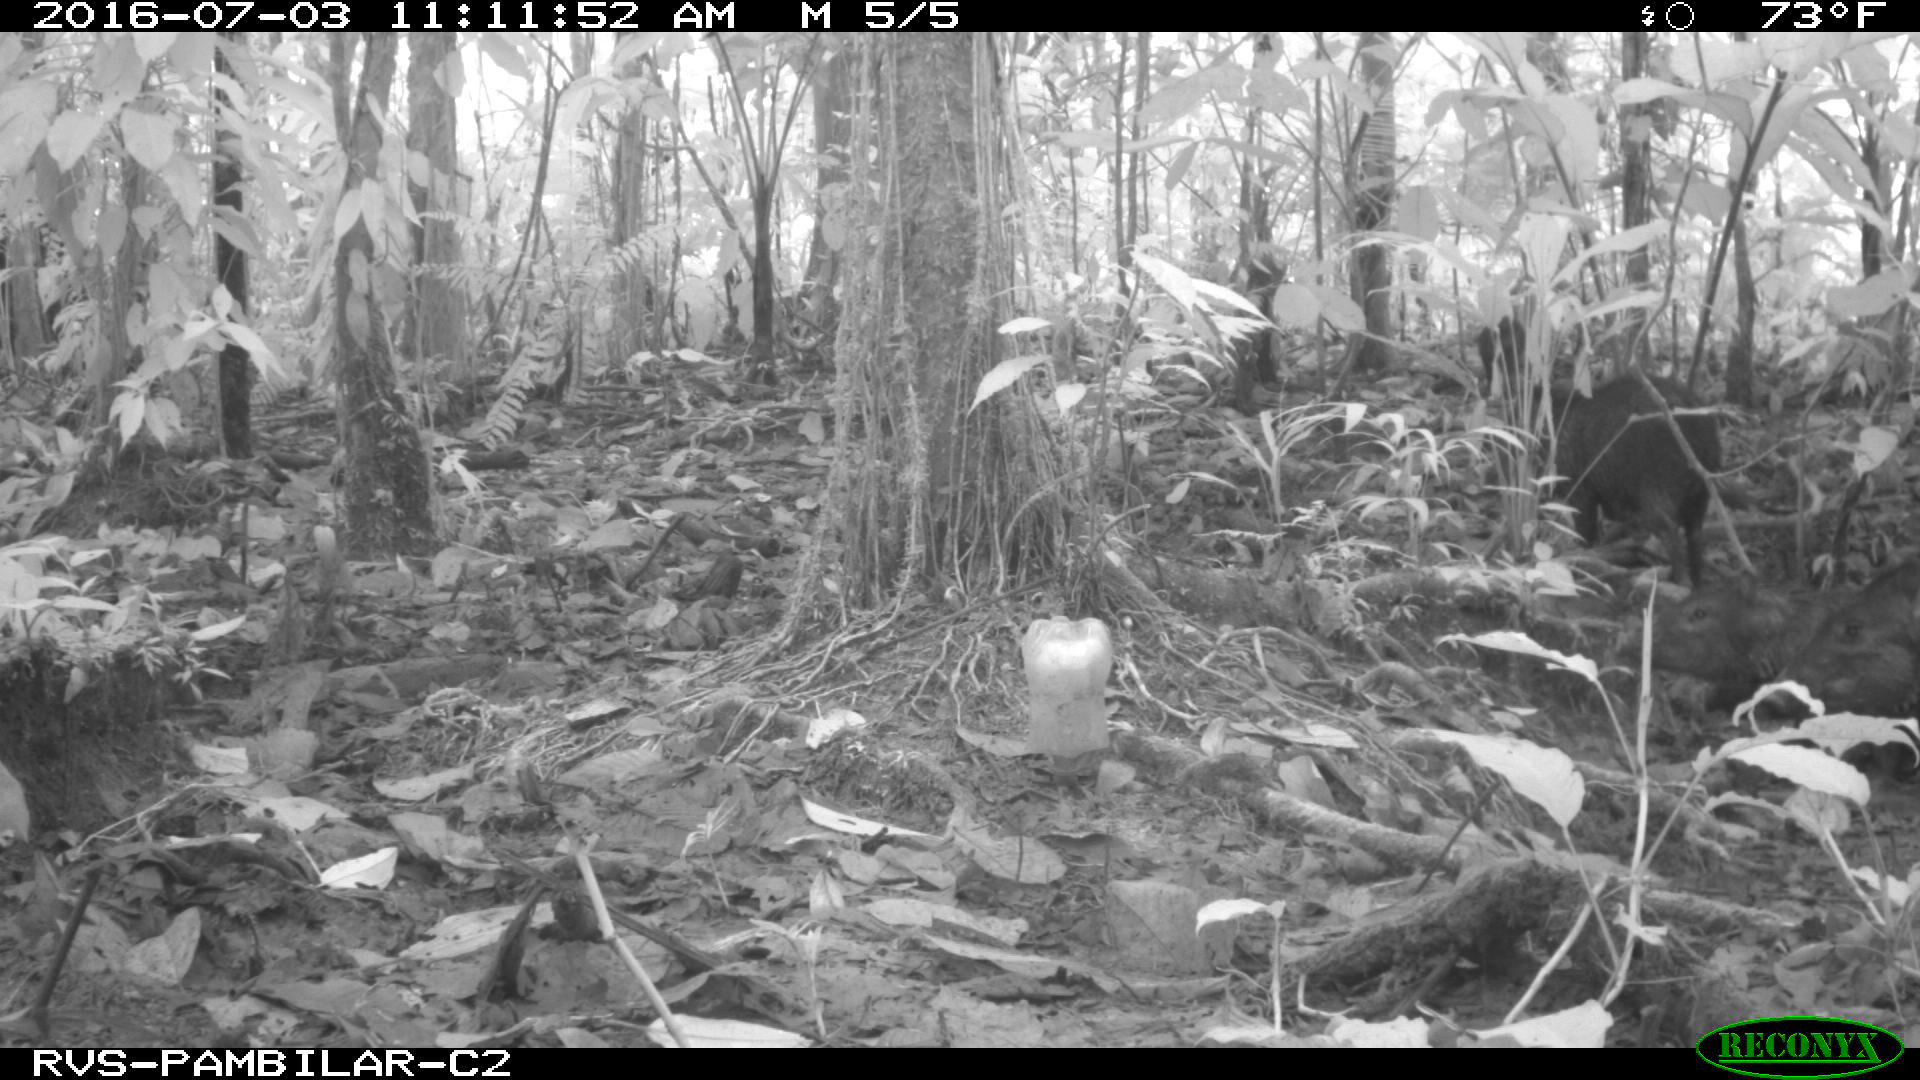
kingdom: Animalia
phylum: Chordata
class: Mammalia
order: Artiodactyla
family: Tayassuidae
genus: Pecari
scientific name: Pecari tajacu
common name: Collared peccary
